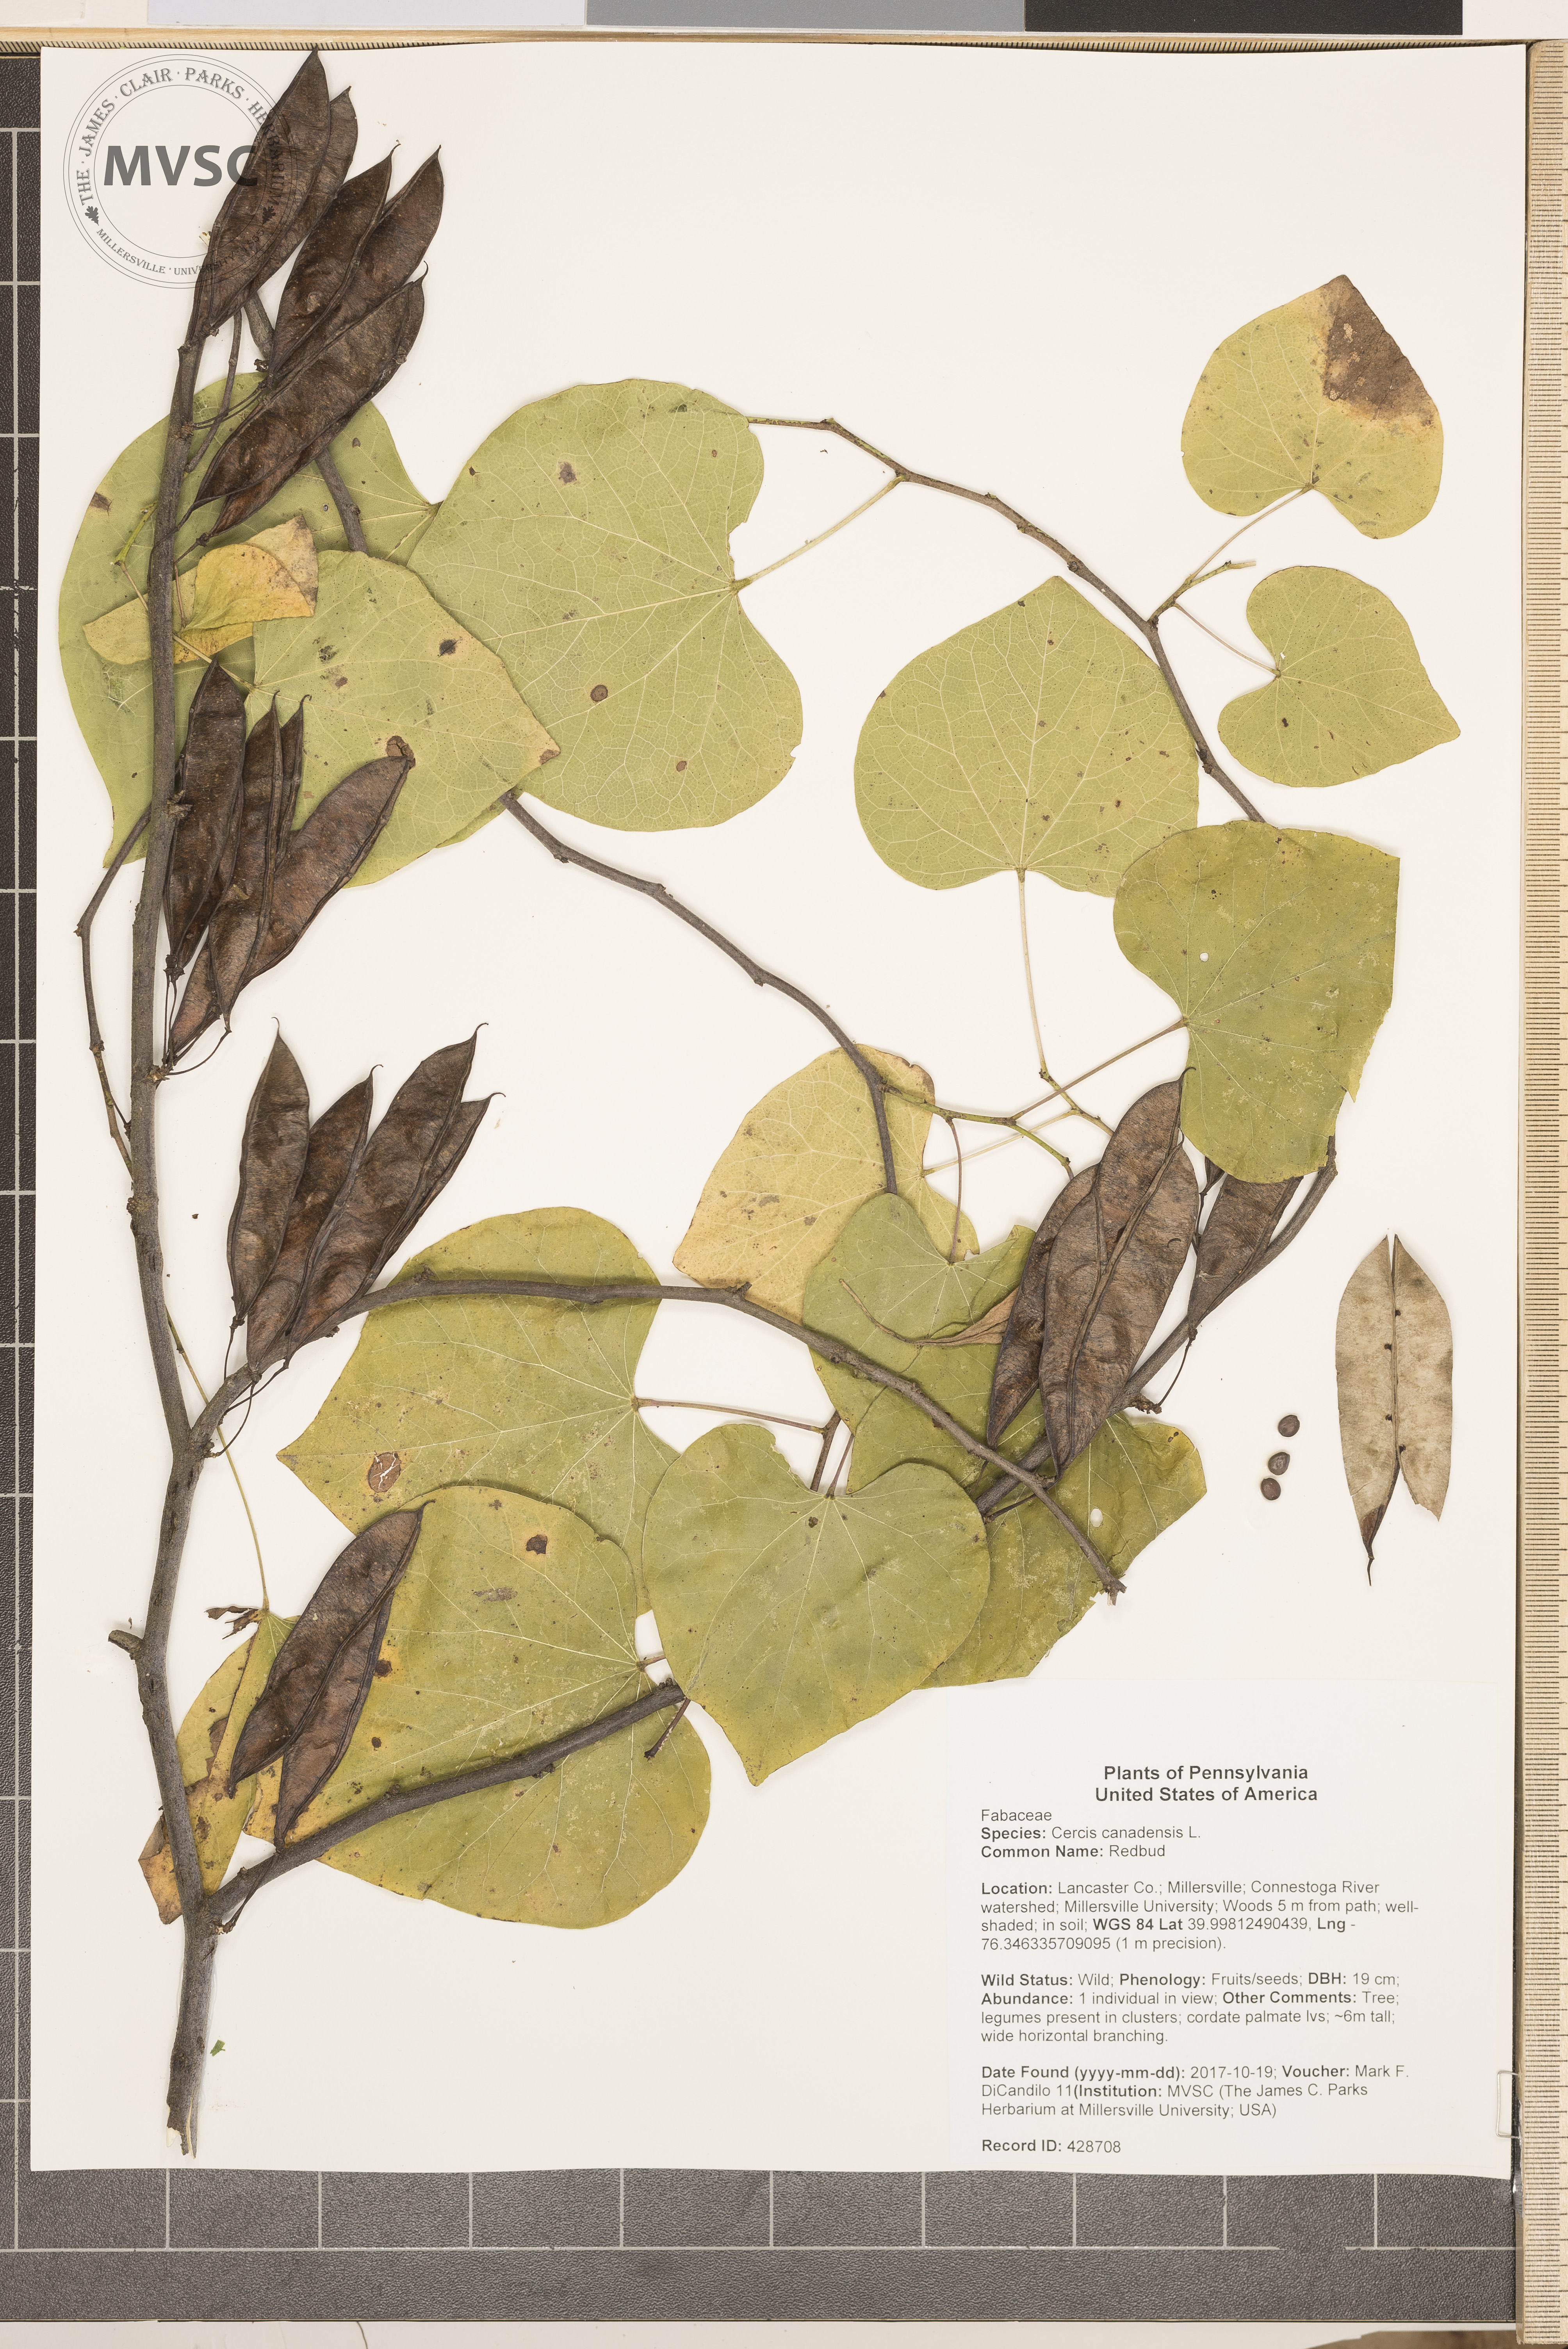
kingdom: Plantae
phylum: Tracheophyta
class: Magnoliopsida
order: Fabales
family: Fabaceae
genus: Cercis
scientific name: Cercis canadensis
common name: Redbud
